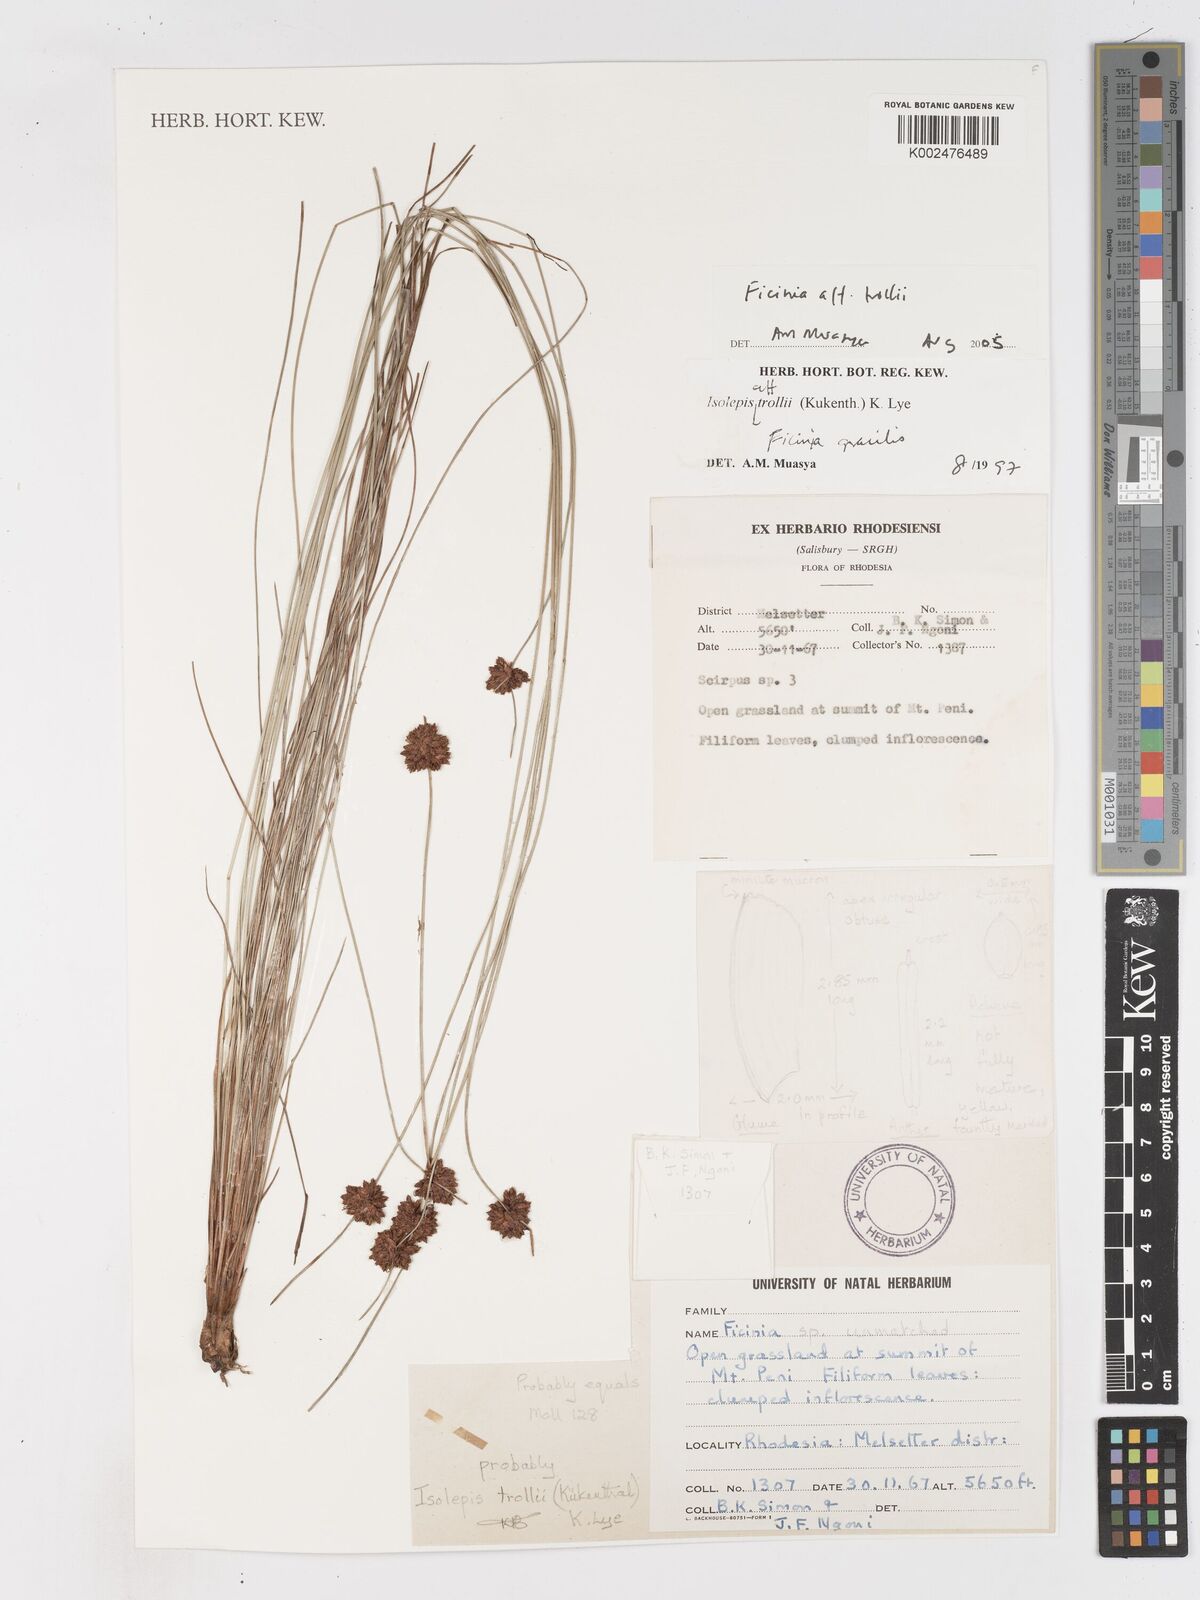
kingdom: Plantae
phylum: Tracheophyta
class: Liliopsida
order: Poales
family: Cyperaceae
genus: Ficinia
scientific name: Ficinia trollii
